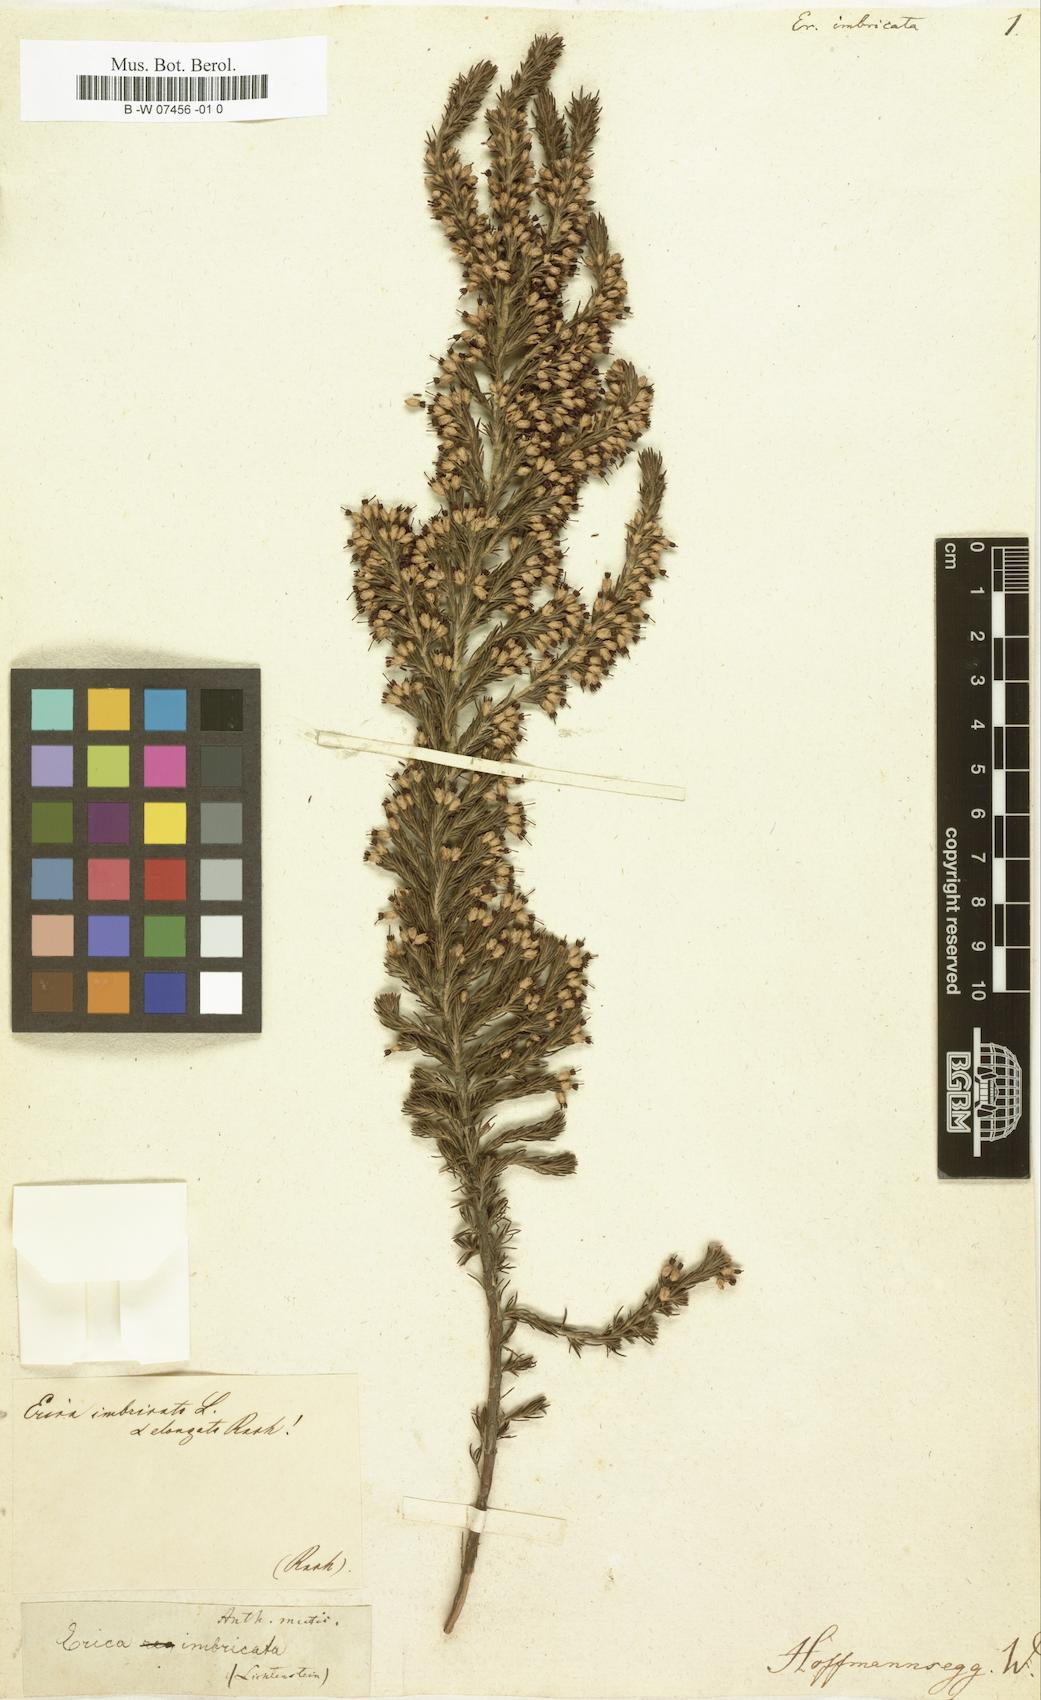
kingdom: Plantae
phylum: Tracheophyta
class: Magnoliopsida
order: Ericales
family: Ericaceae
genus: Erica
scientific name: Erica imbricata
